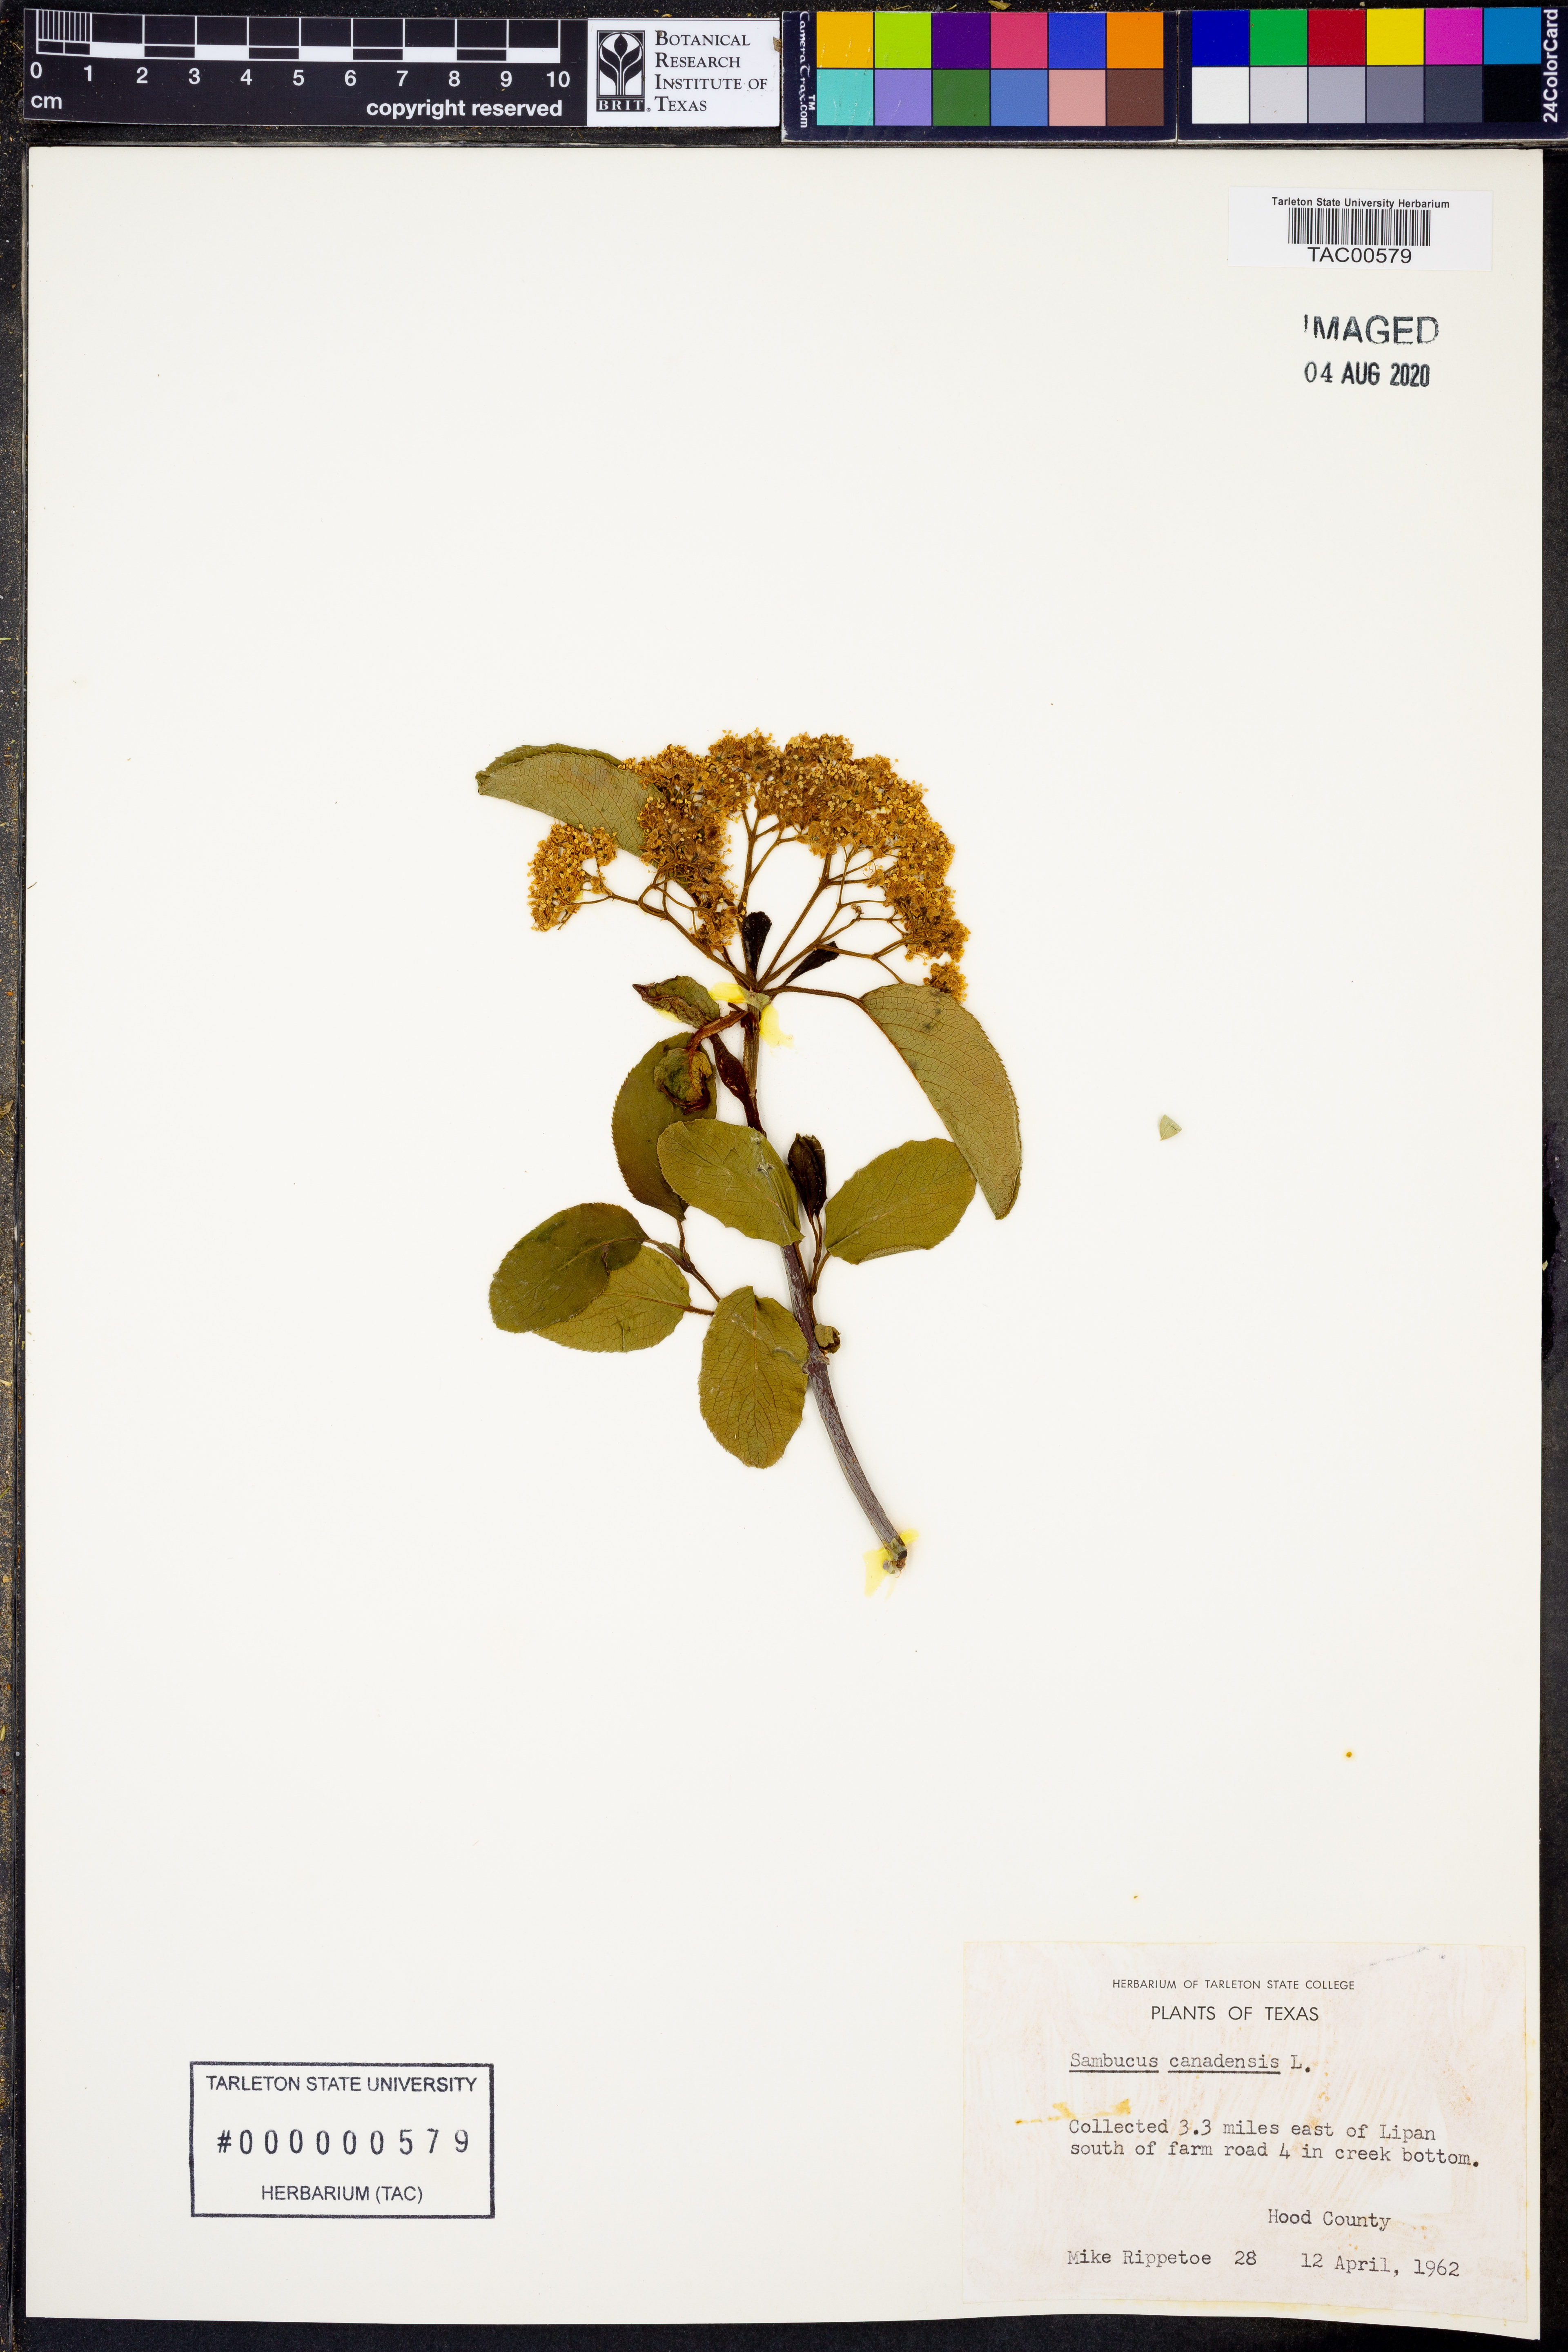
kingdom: Plantae
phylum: Tracheophyta
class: Magnoliopsida
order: Dipsacales
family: Viburnaceae
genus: Sambucus
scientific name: Sambucus canadensis
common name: American elder
